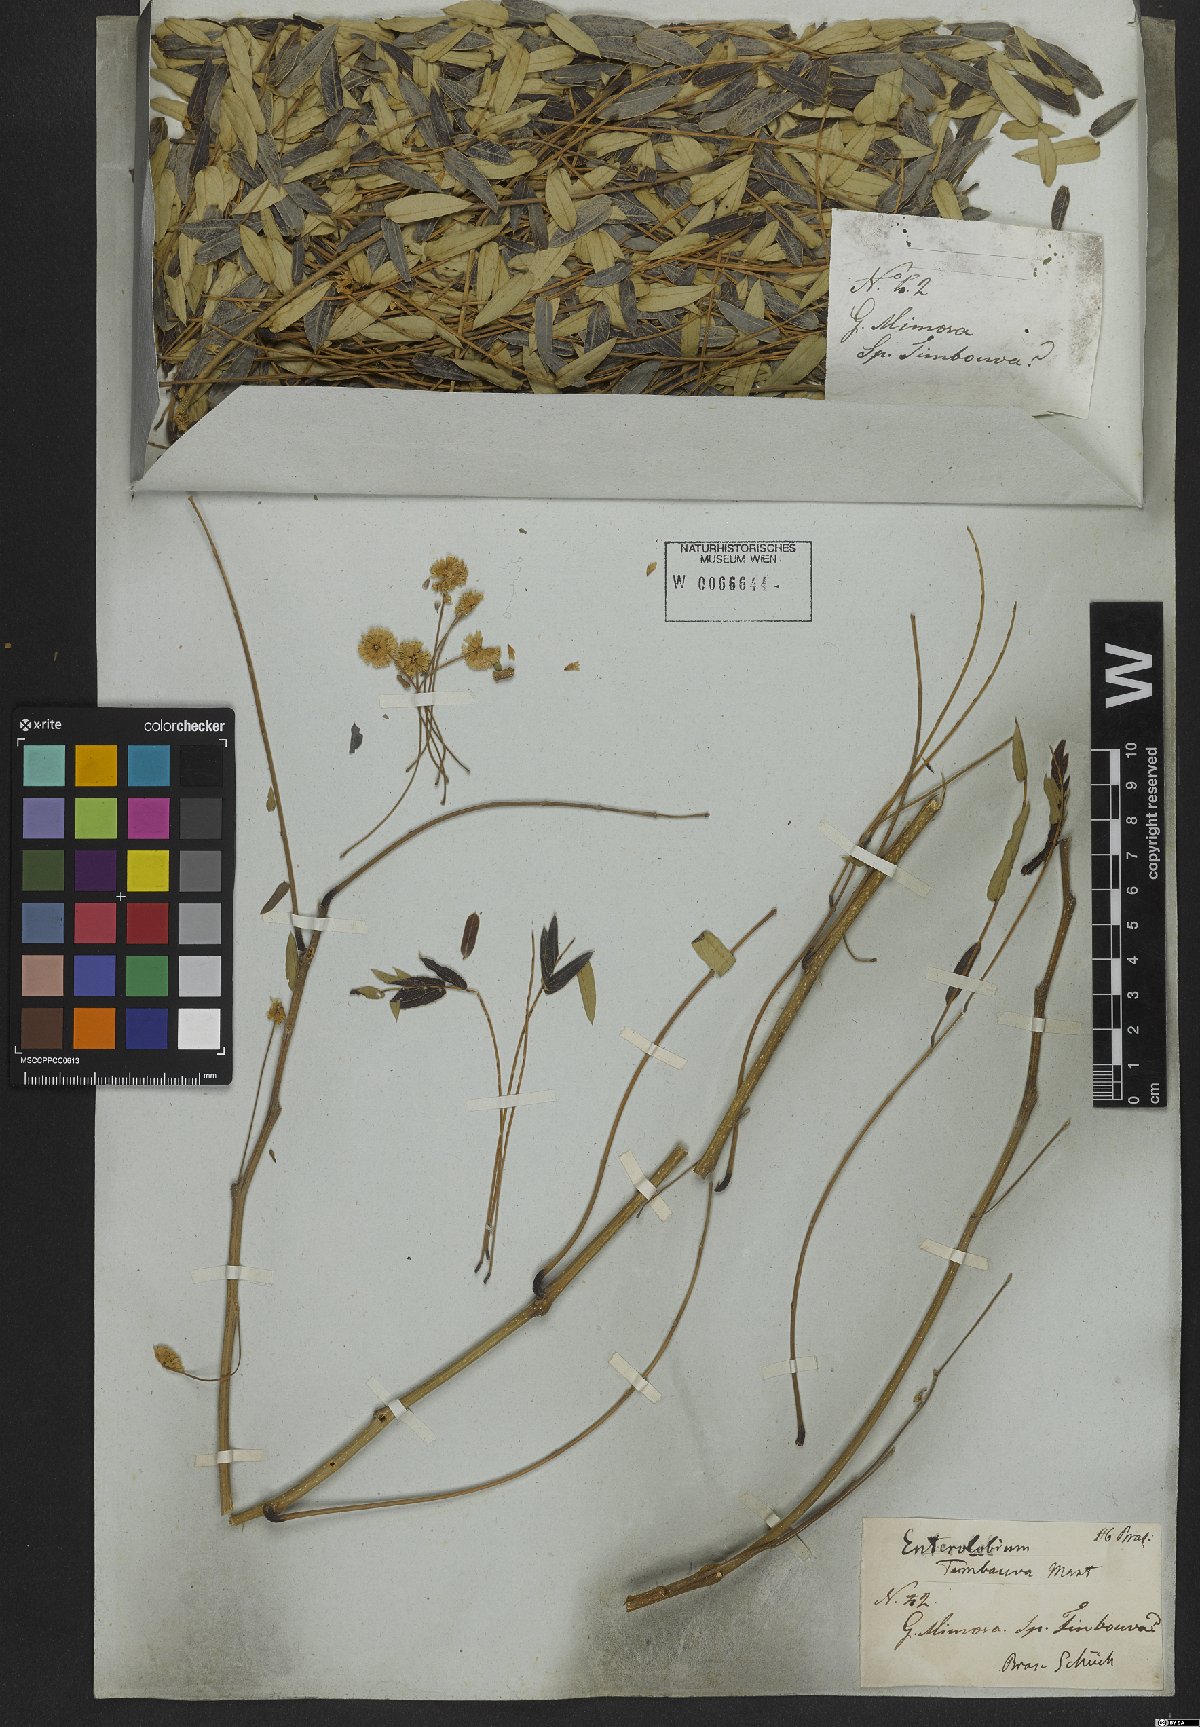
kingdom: Plantae
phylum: Tracheophyta
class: Magnoliopsida
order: Fabales
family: Fabaceae
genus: Enterolobium
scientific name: Enterolobium timbouva
